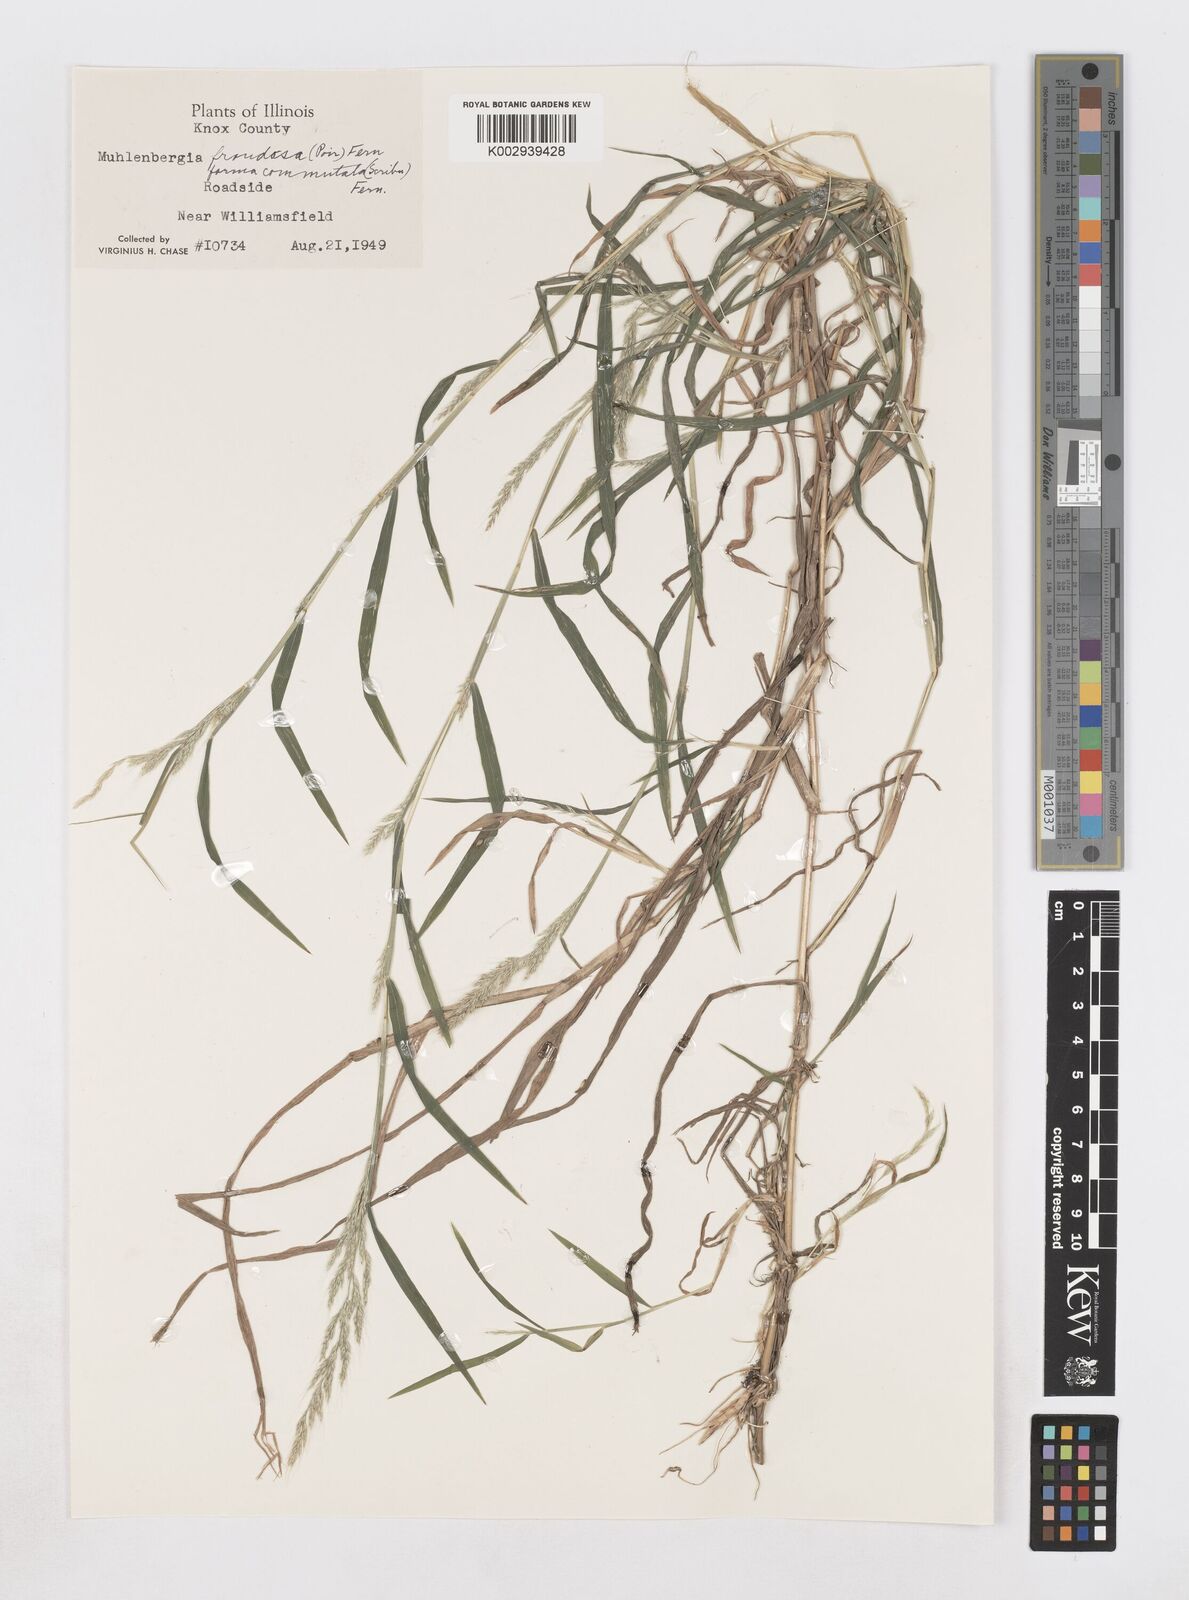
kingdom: Plantae
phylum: Tracheophyta
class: Liliopsida
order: Poales
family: Poaceae
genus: Muhlenbergia
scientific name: Muhlenbergia frondosa
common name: Common satingrass
